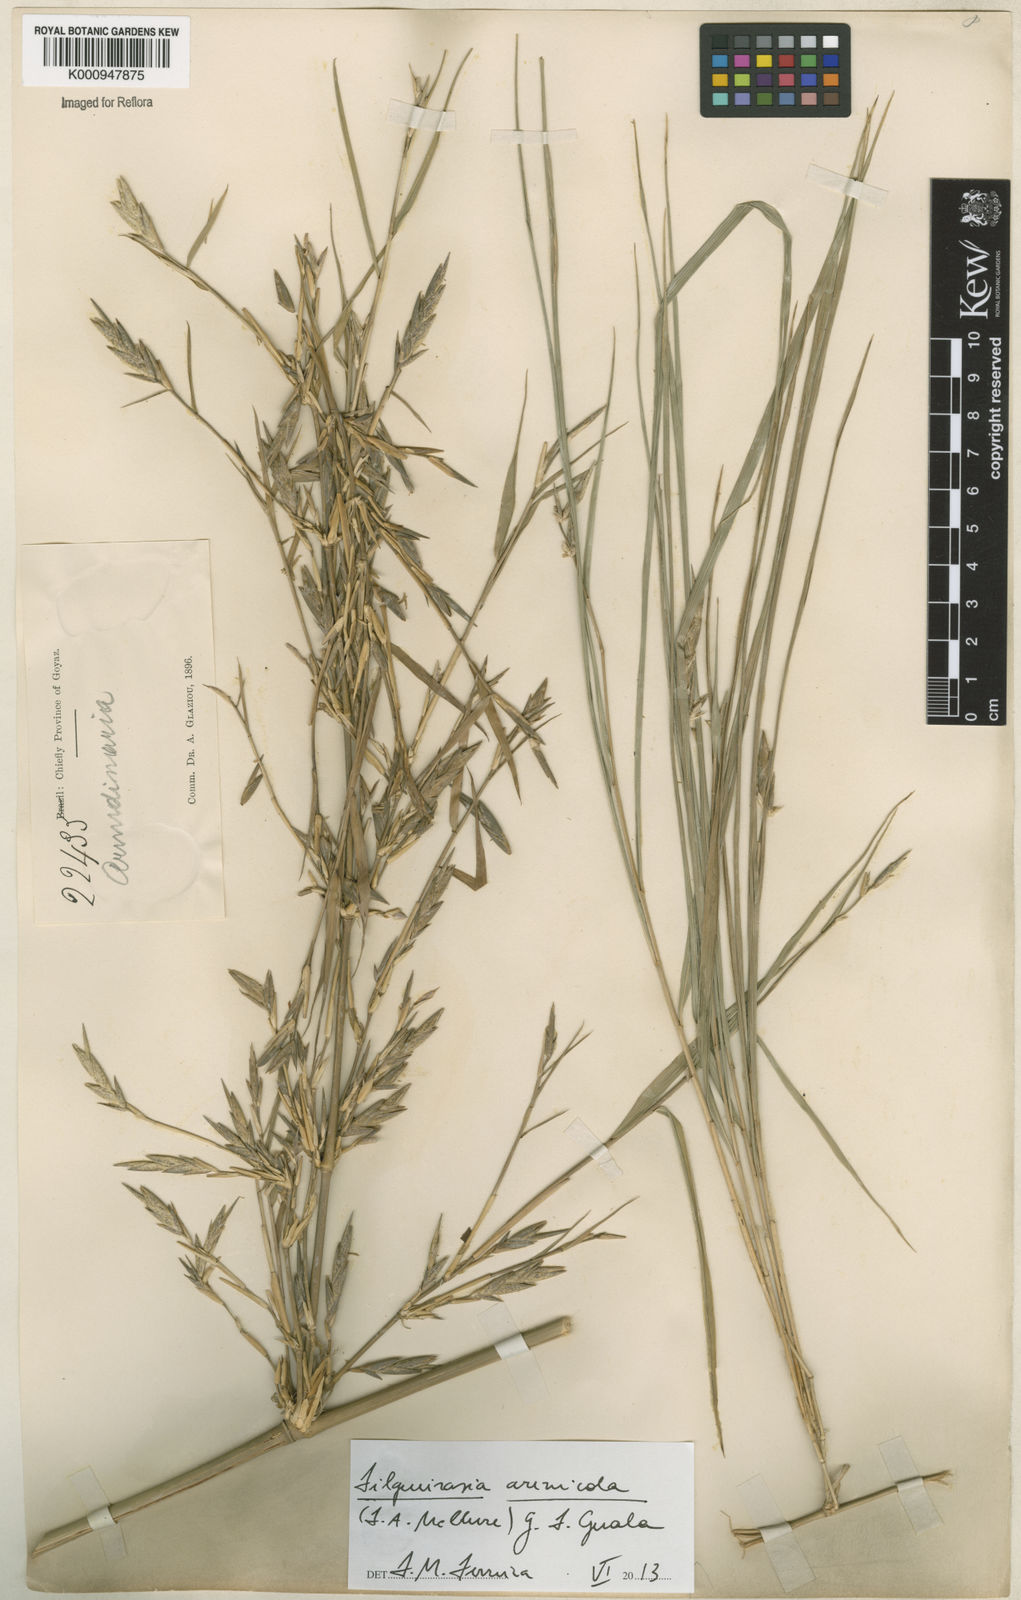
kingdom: Plantae
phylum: Tracheophyta
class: Liliopsida
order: Poales
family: Poaceae
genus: Filgueirasia
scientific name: Filgueirasia arenicola
